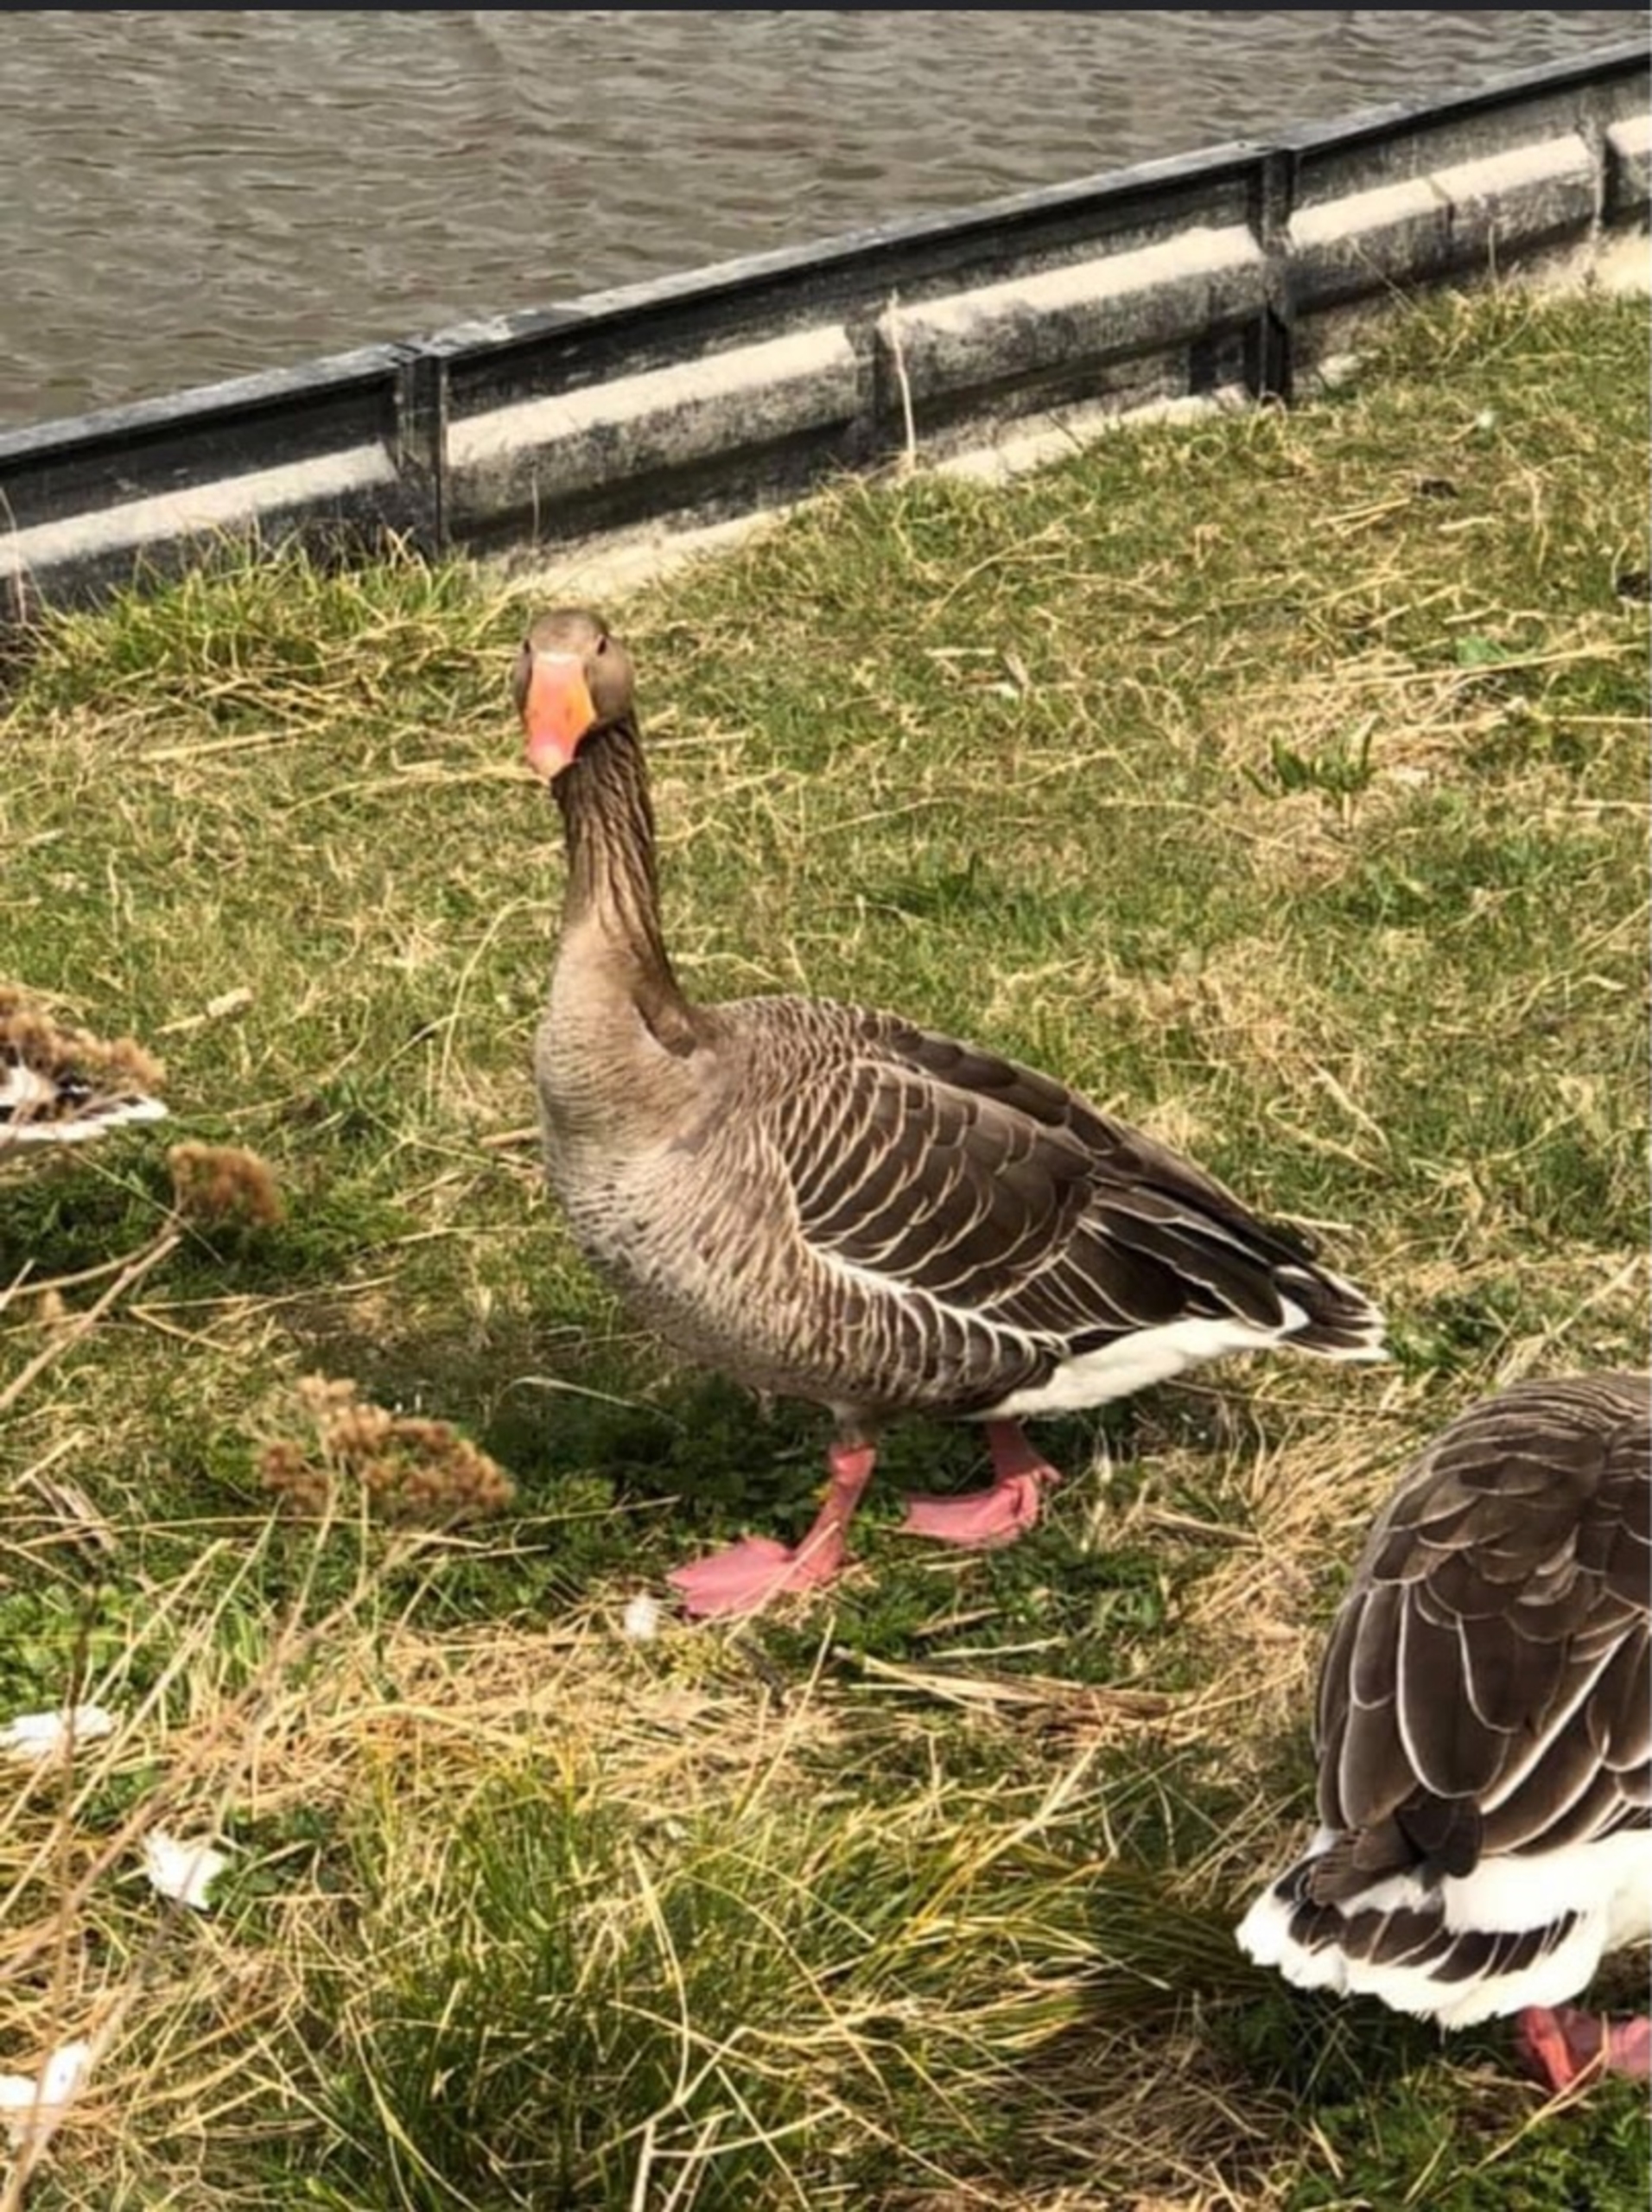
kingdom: Animalia
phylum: Chordata
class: Aves
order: Anseriformes
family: Anatidae
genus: Anser
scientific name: Anser anser
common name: Grågås
